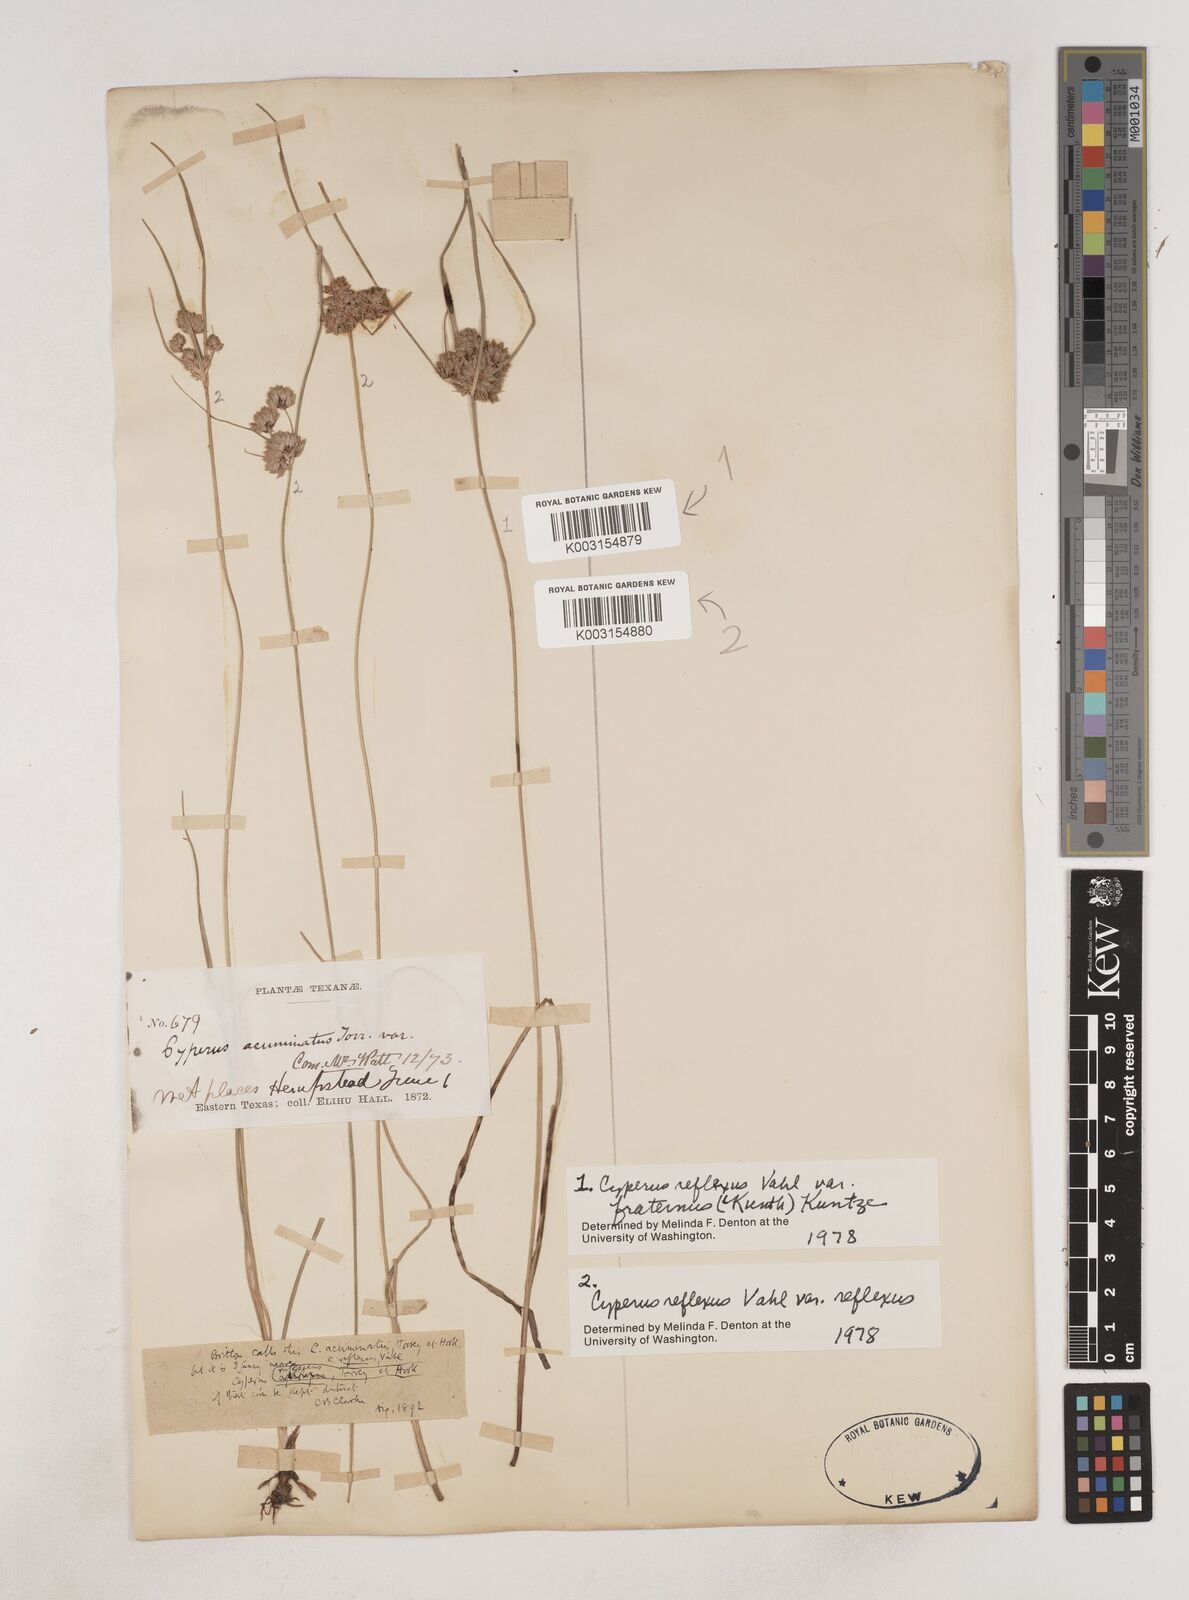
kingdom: Plantae
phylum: Tracheophyta
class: Liliopsida
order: Poales
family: Cyperaceae
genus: Cyperus
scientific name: Cyperus reflexus
